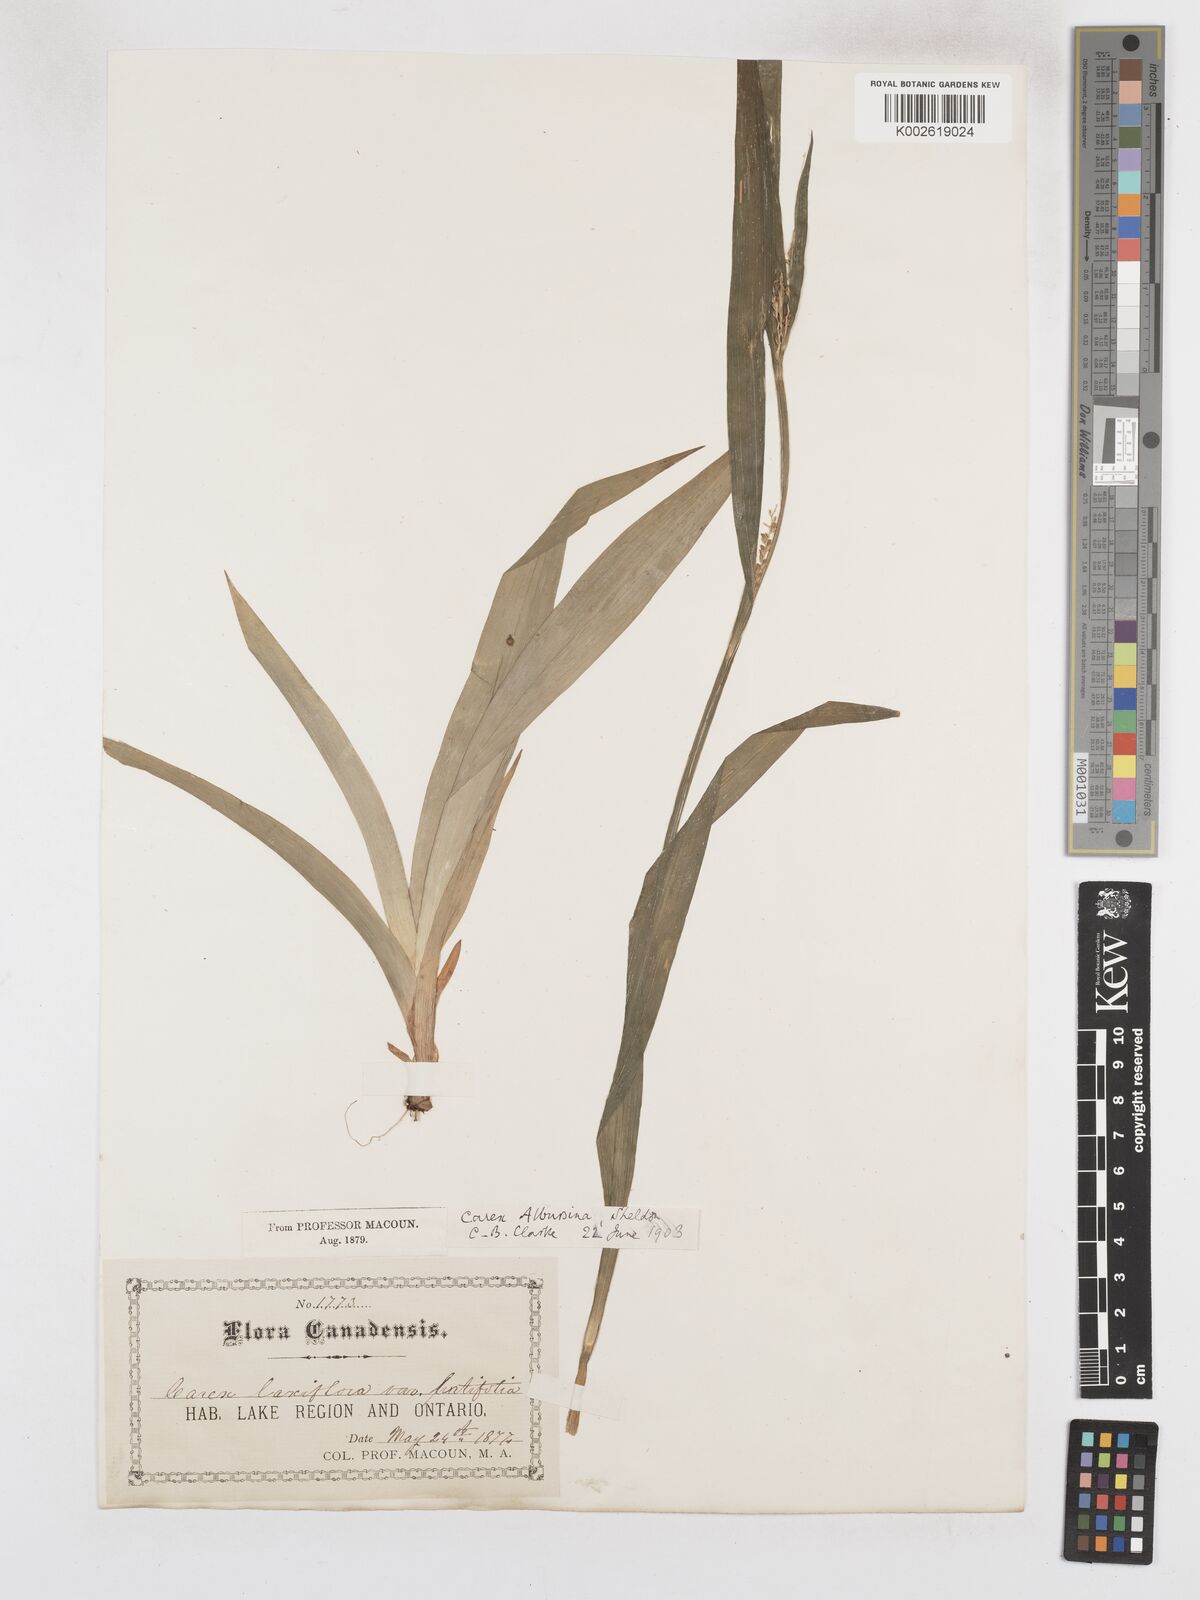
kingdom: Plantae
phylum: Tracheophyta
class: Liliopsida
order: Poales
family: Cyperaceae
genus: Carex
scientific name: Carex albursina
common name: Blunt-scale wood sedge
